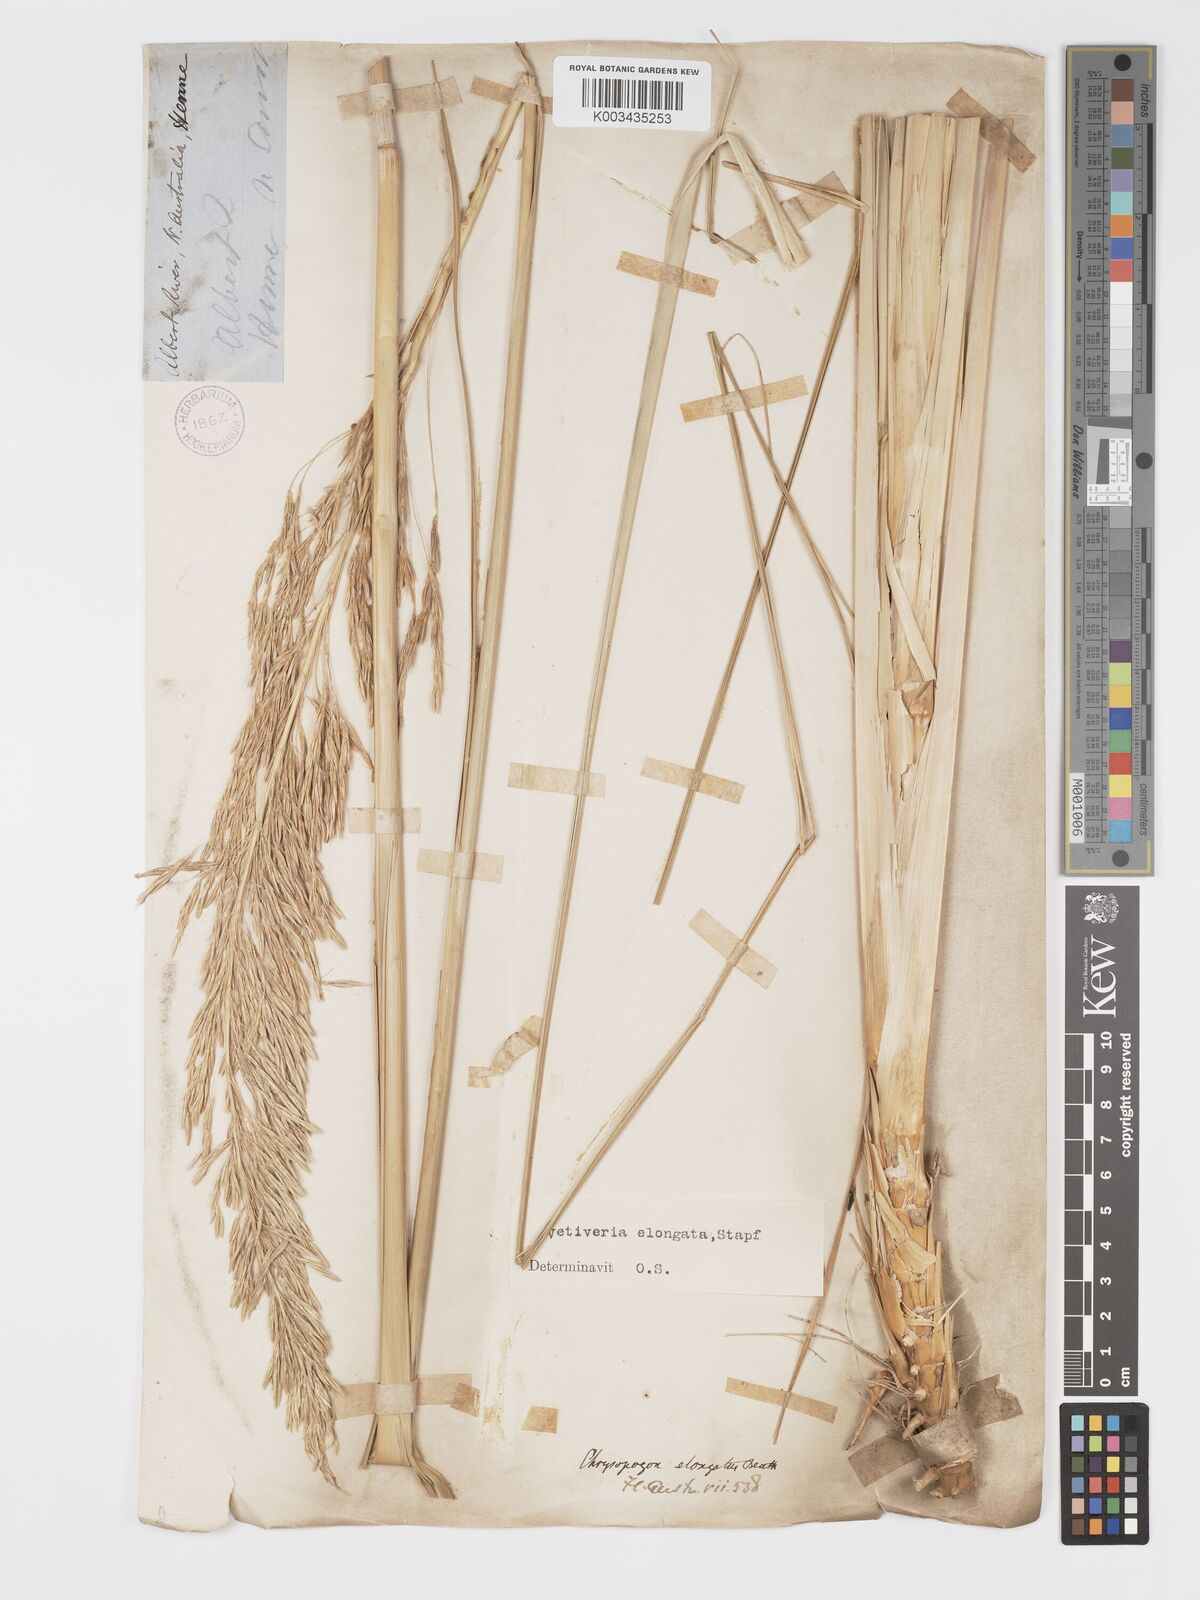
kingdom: Plantae
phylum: Tracheophyta
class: Liliopsida
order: Poales
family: Poaceae
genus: Chrysopogon
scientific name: Chrysopogon elongatus
